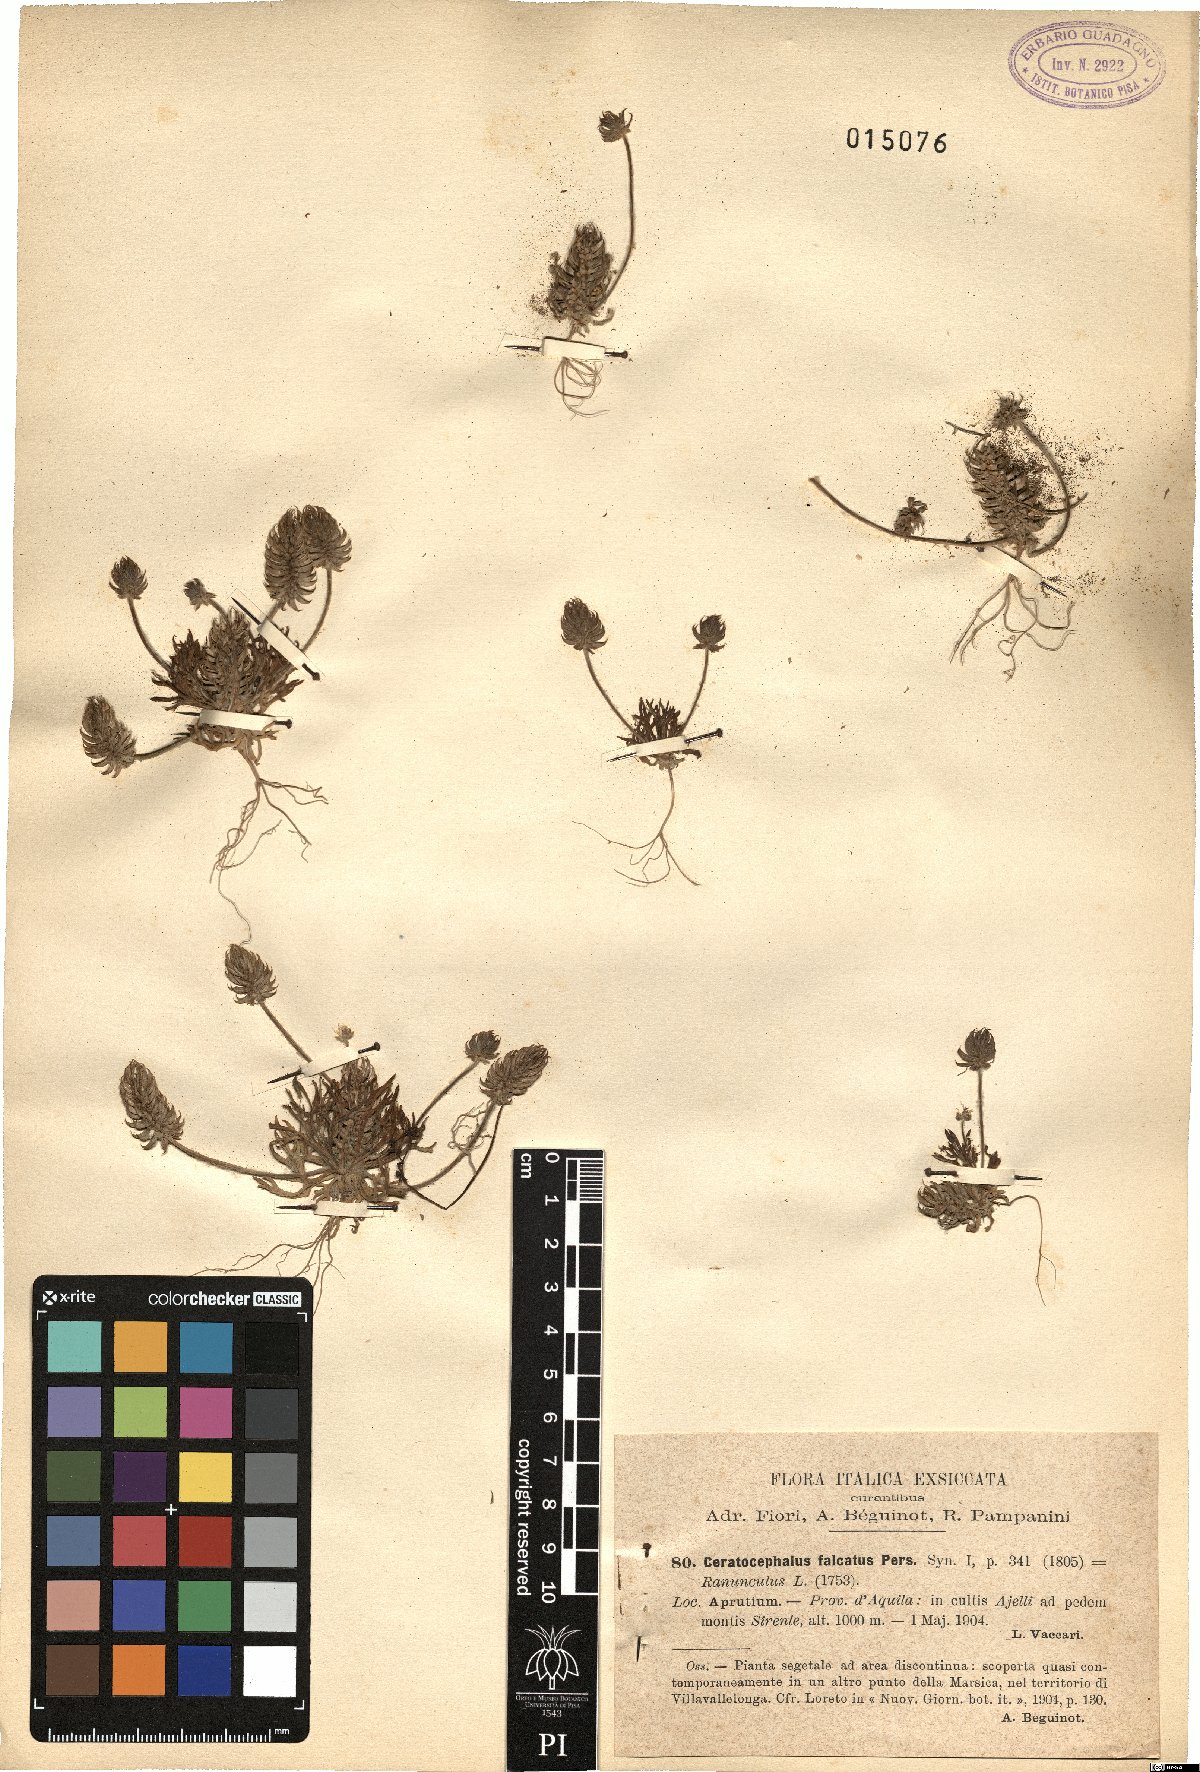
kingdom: Plantae
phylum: Tracheophyta
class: Magnoliopsida
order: Ranunculales
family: Ranunculaceae
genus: Ceratocephala
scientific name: Ceratocephala falcata
